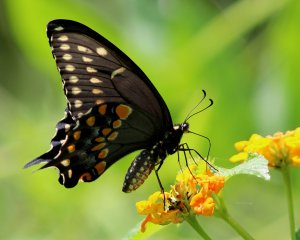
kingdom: Animalia
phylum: Arthropoda
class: Insecta
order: Lepidoptera
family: Papilionidae
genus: Papilio
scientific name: Papilio polyxenes
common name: Black Swallowtail
